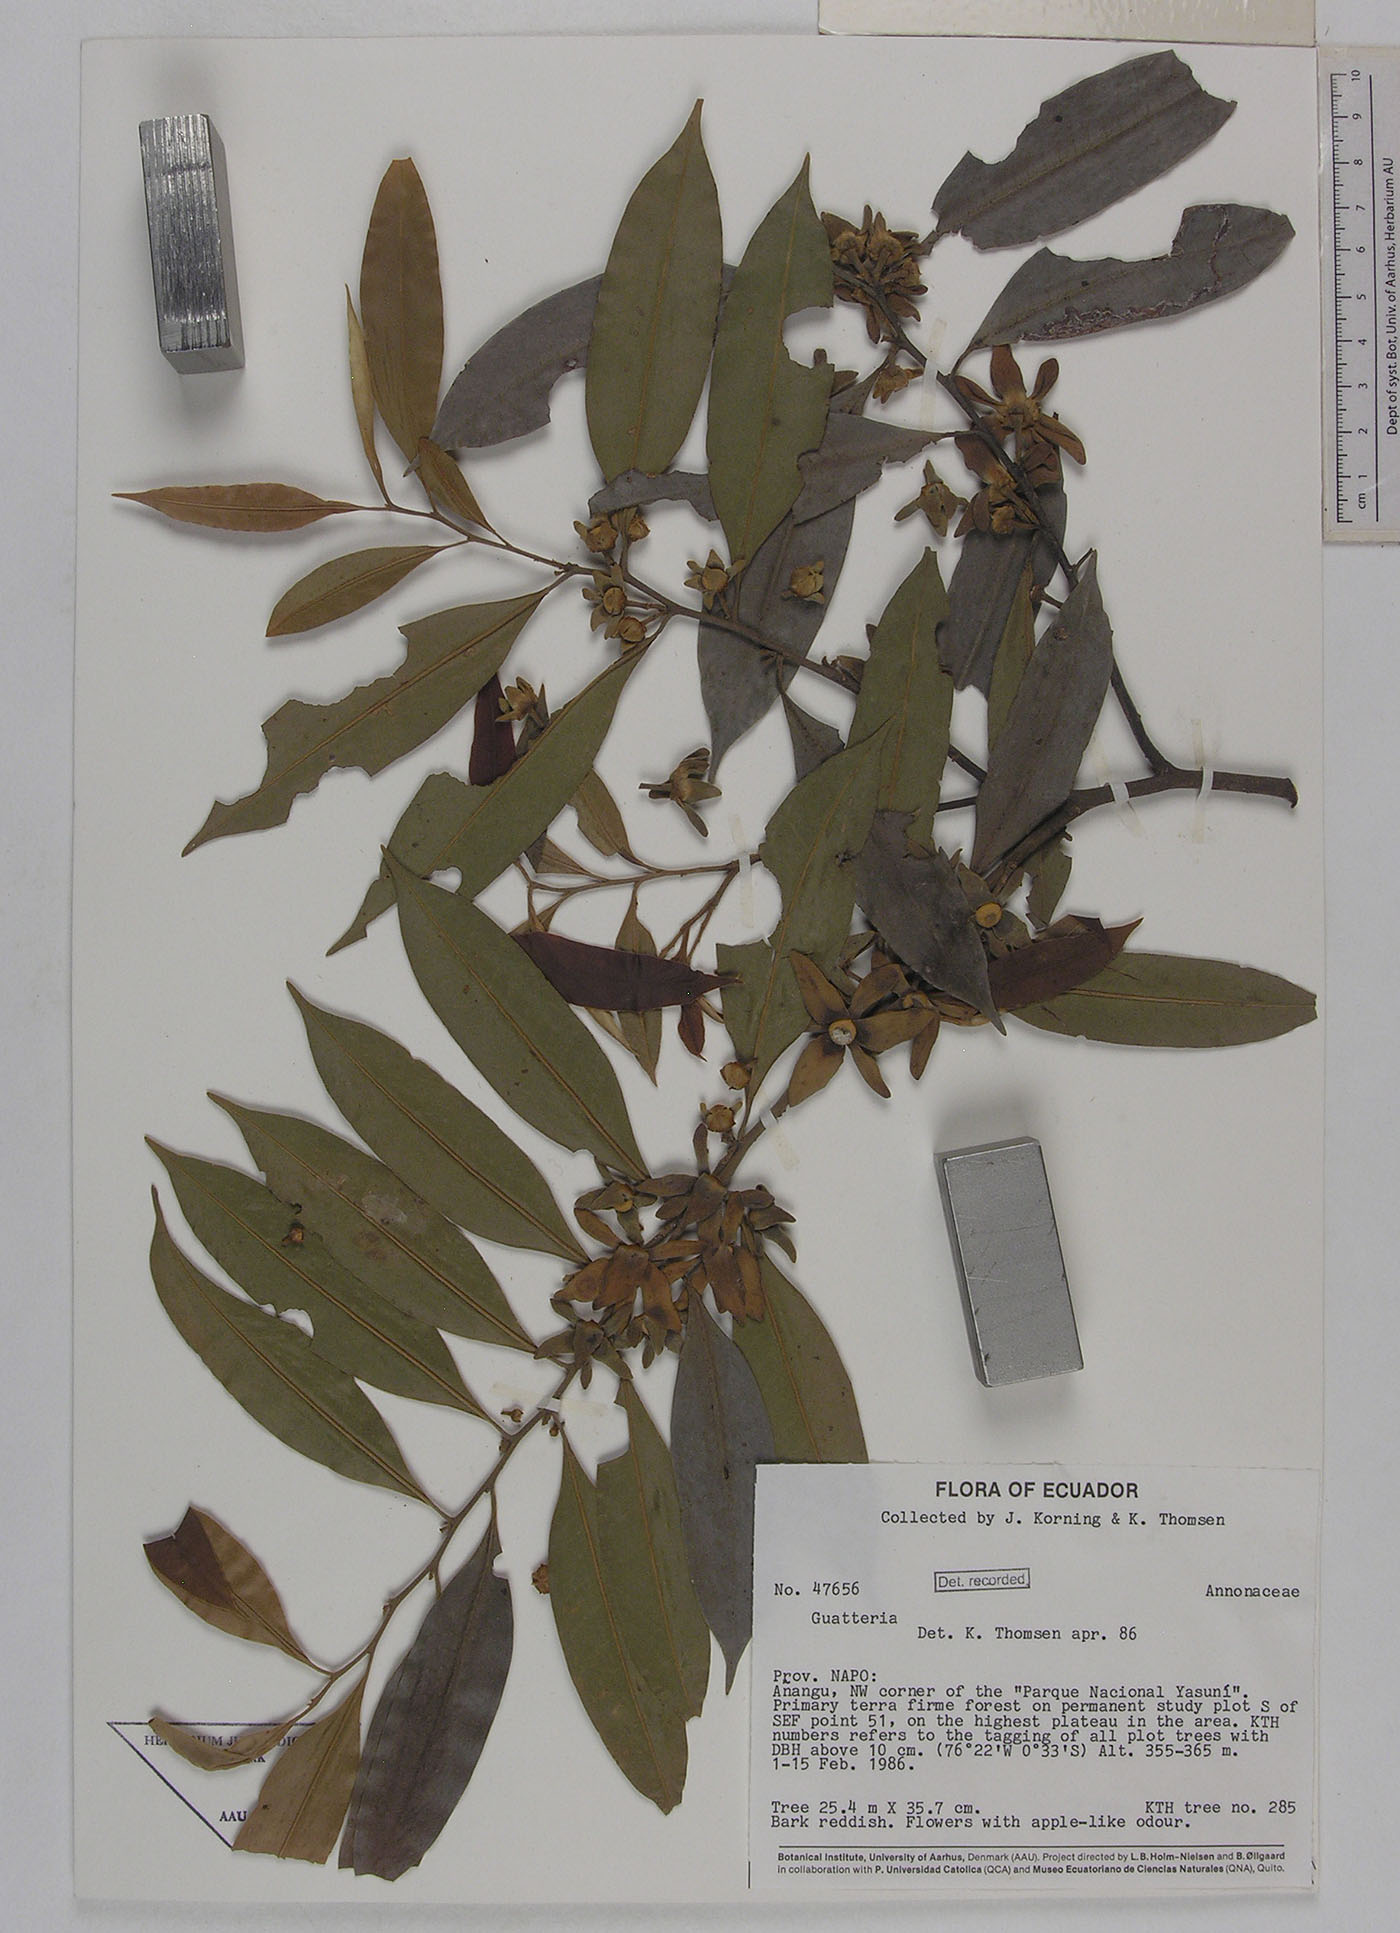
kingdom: Plantae
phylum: Tracheophyta
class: Magnoliopsida
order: Magnoliales
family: Annonaceae
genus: Guatteria
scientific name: Guatteria duodecima
